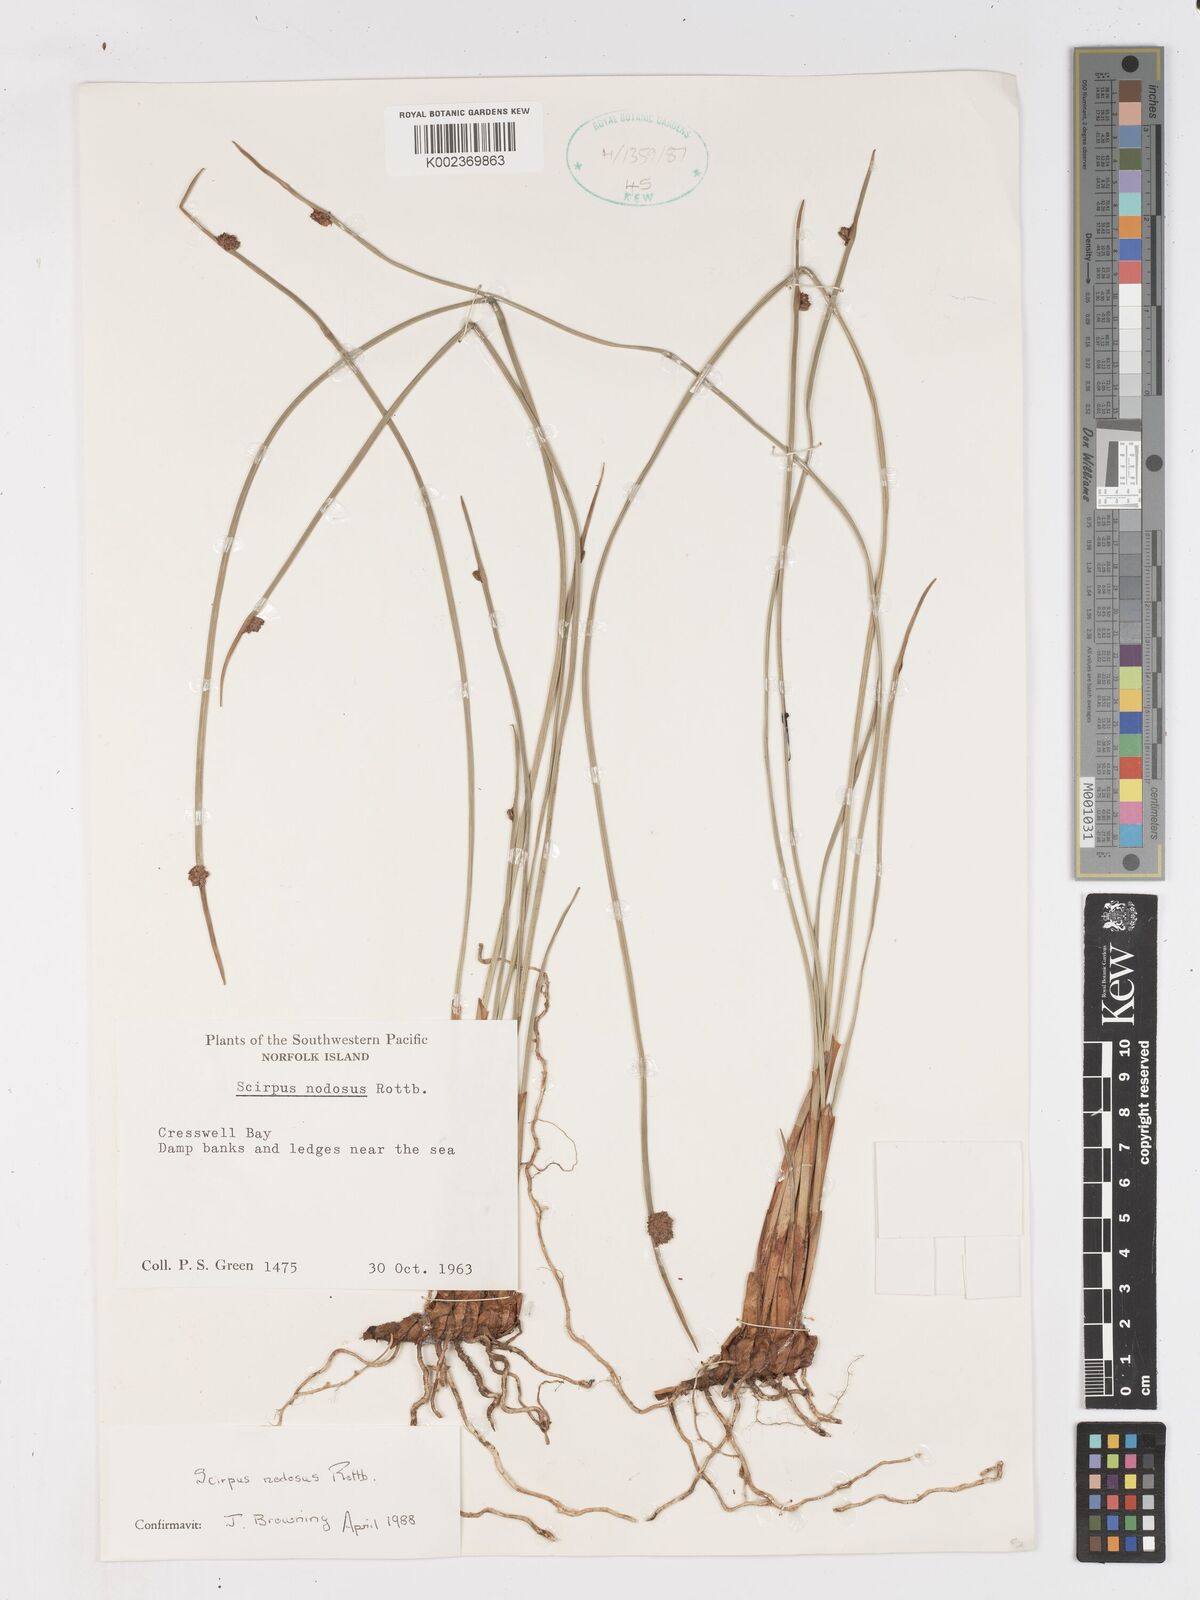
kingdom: Plantae
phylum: Tracheophyta
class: Liliopsida
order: Poales
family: Cyperaceae
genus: Ficinia
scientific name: Ficinia nodosa
